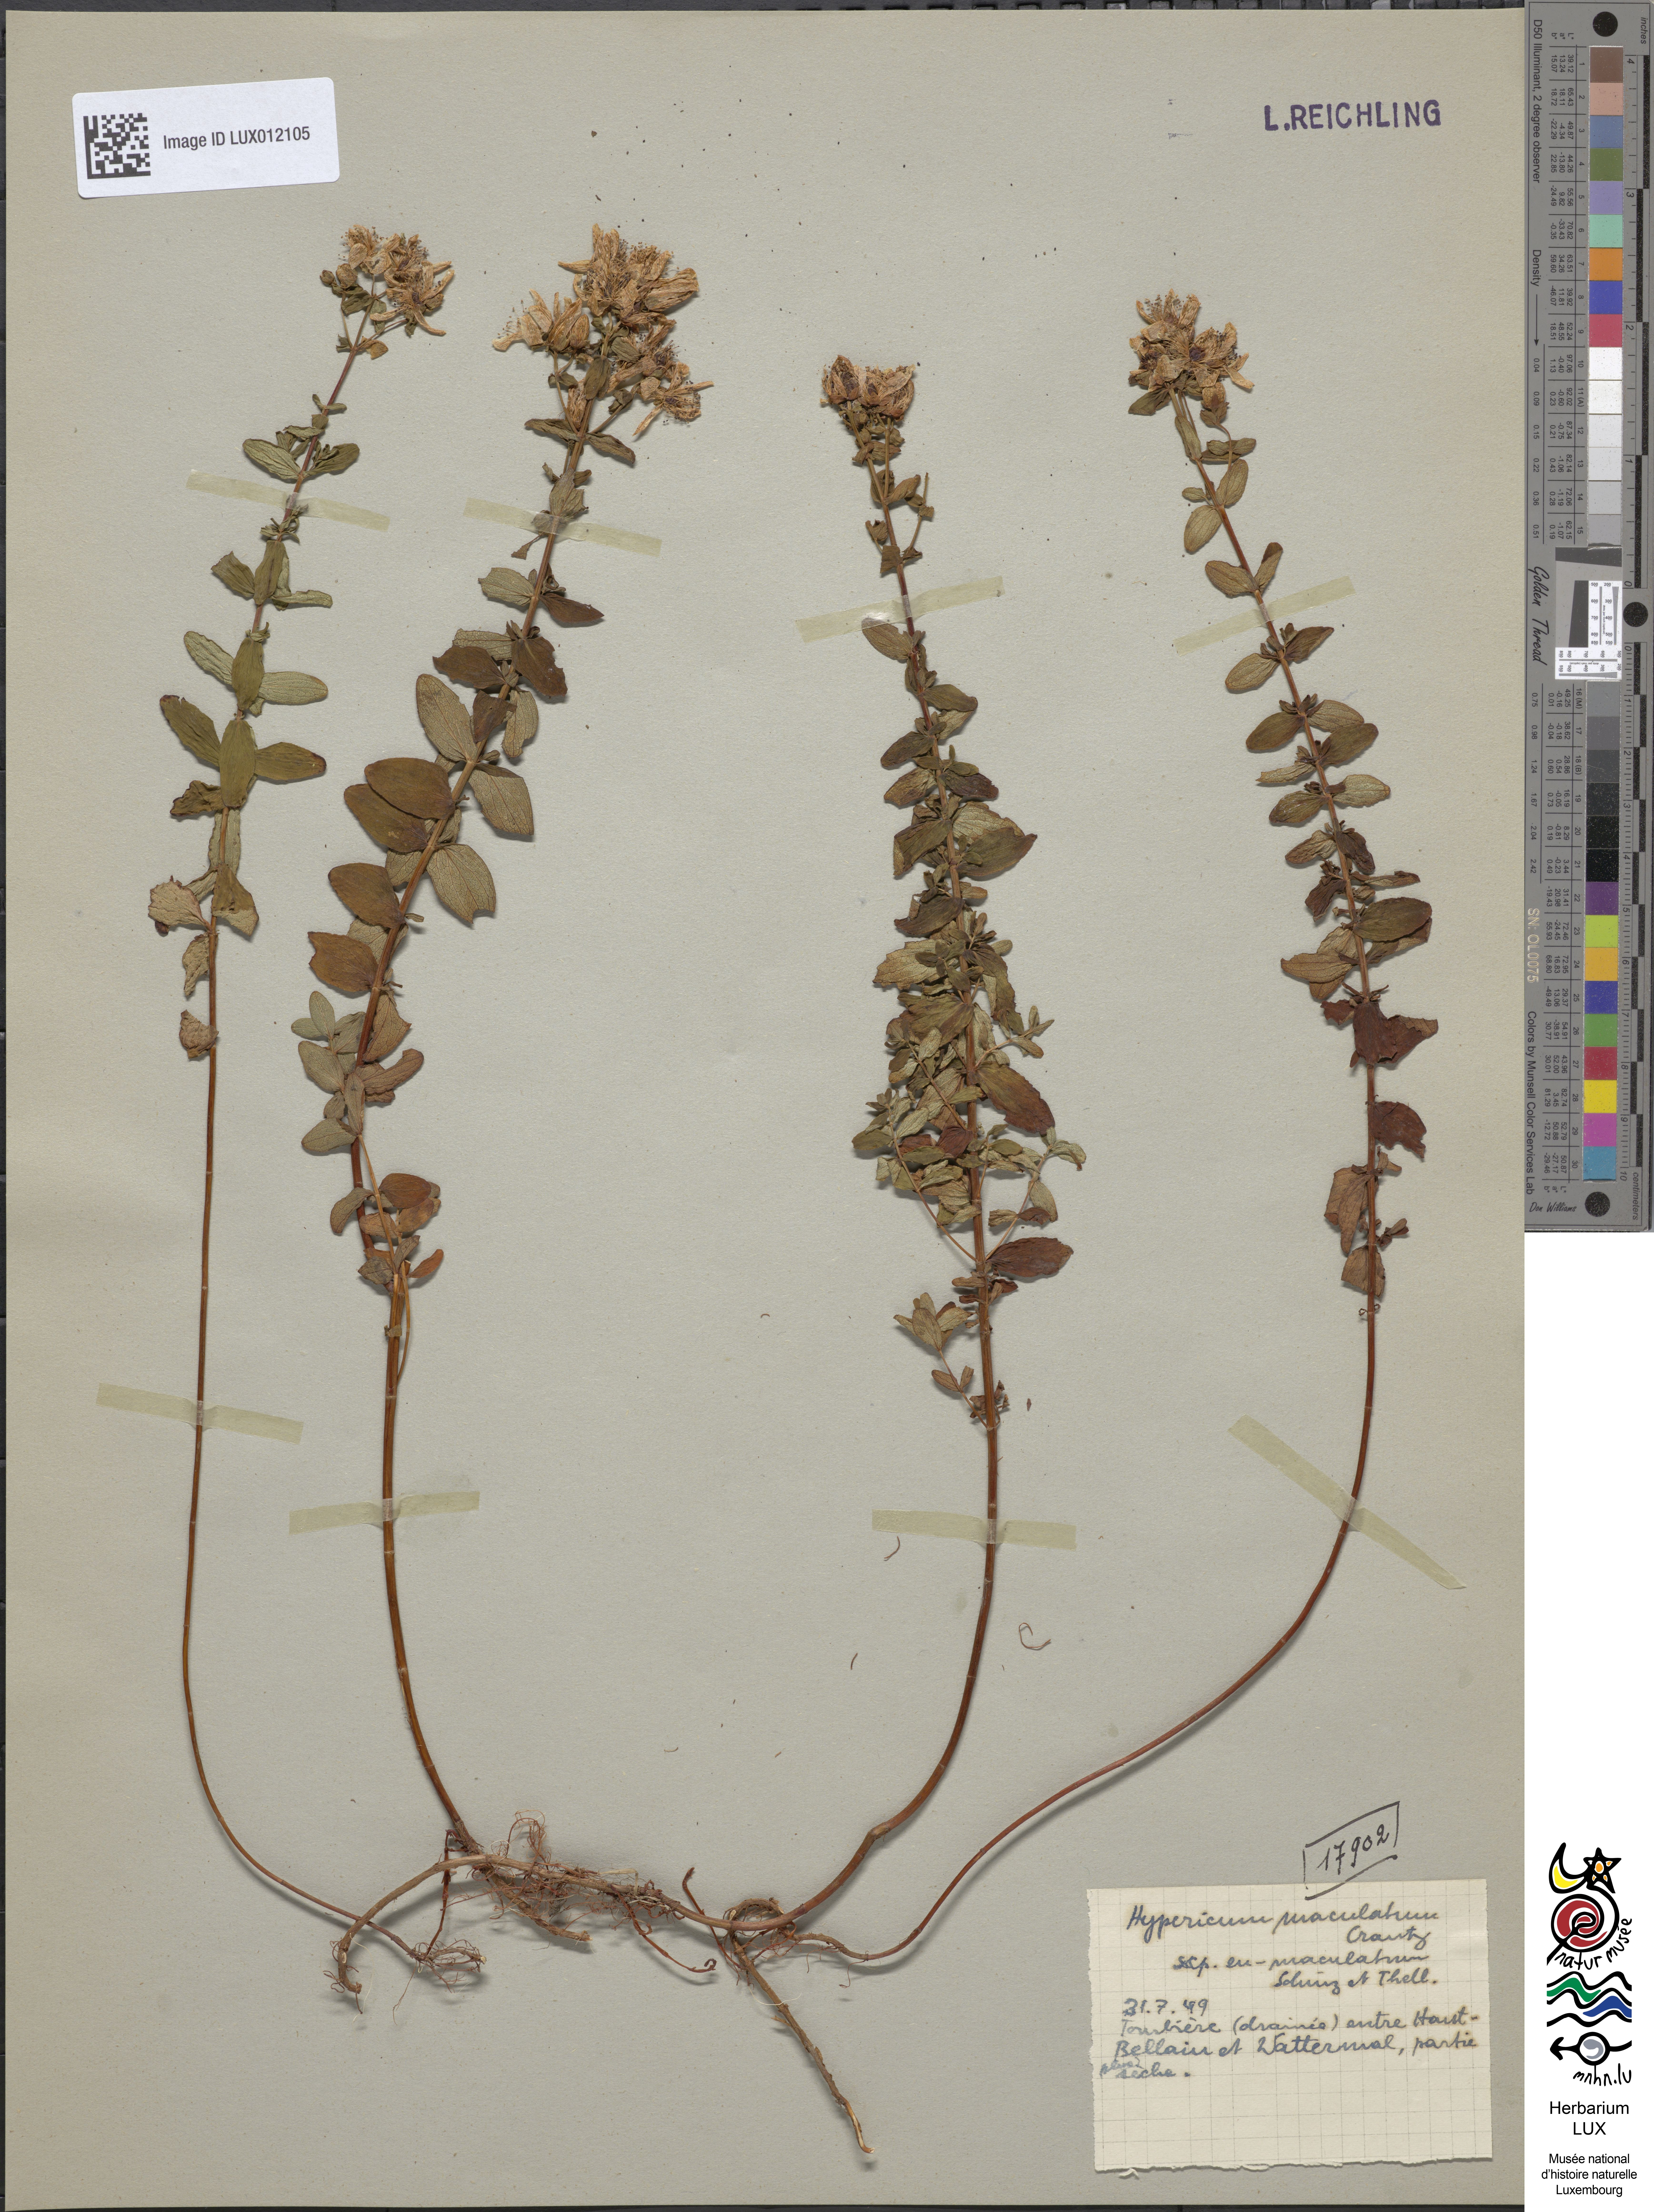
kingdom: Plantae
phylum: Tracheophyta
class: Magnoliopsida
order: Malpighiales
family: Hypericaceae
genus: Hypericum
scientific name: Hypericum dubium
